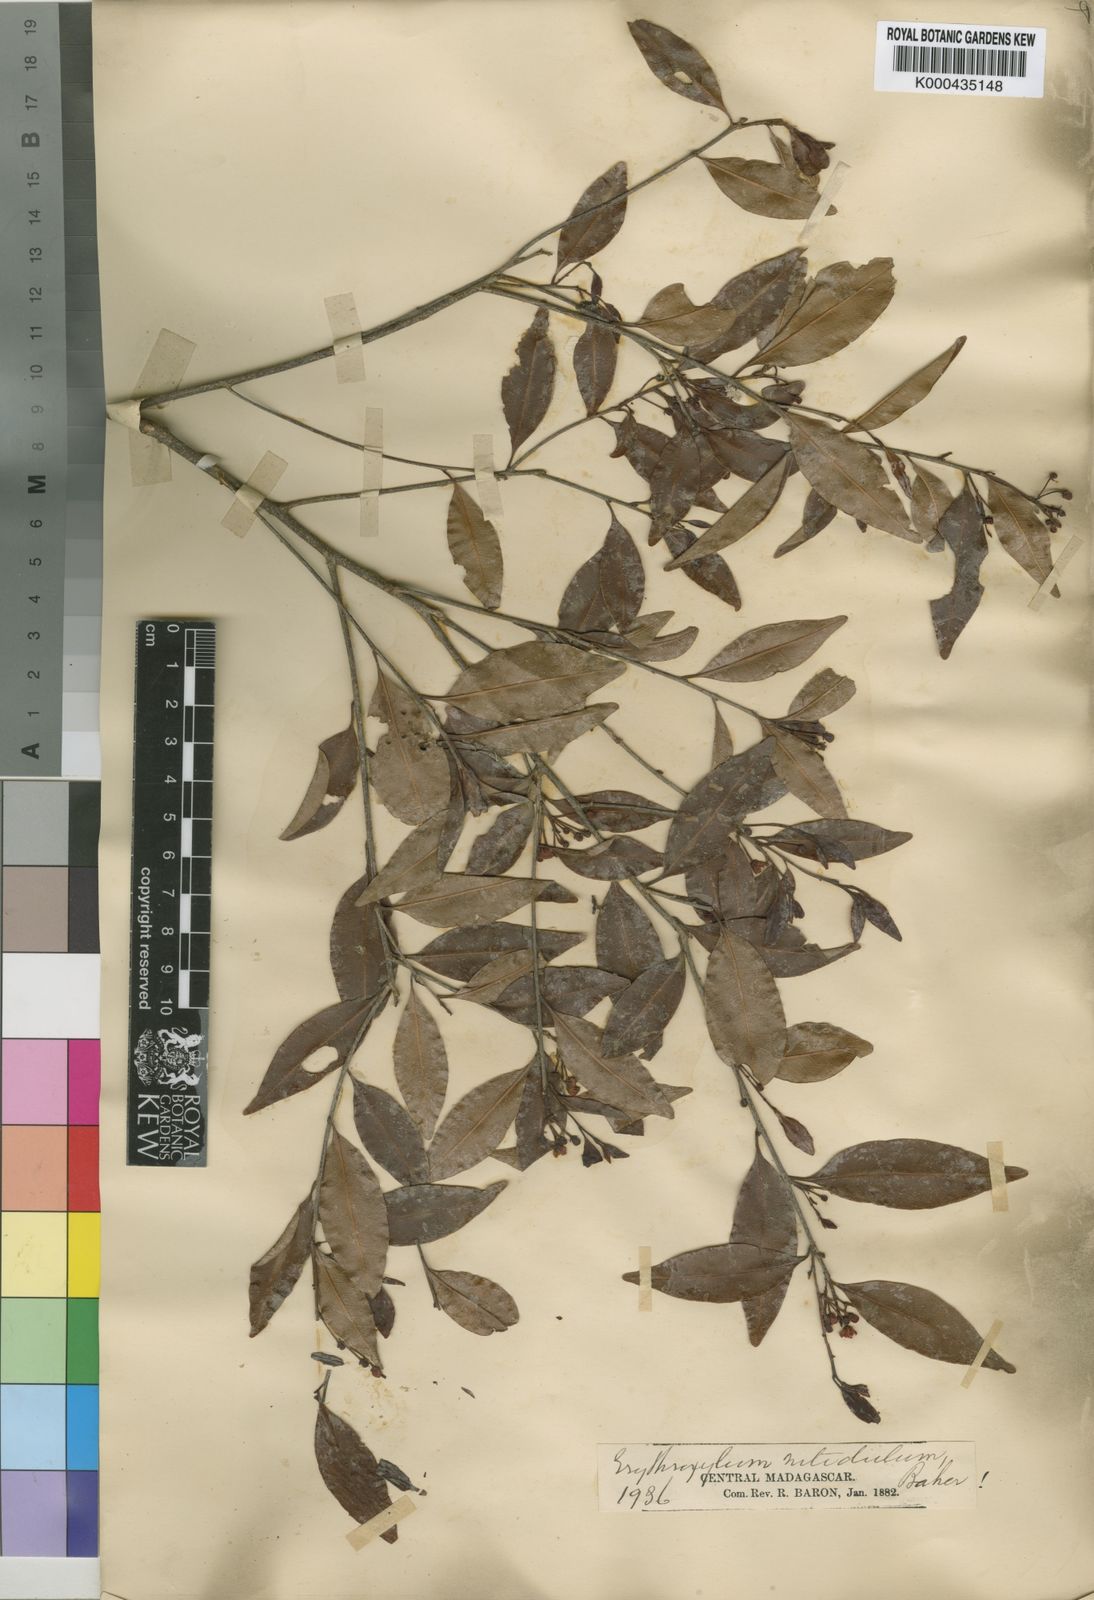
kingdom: Plantae
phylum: Tracheophyta
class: Magnoliopsida
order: Malpighiales
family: Erythroxylaceae
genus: Erythroxylum
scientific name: Erythroxylum nitidulum
